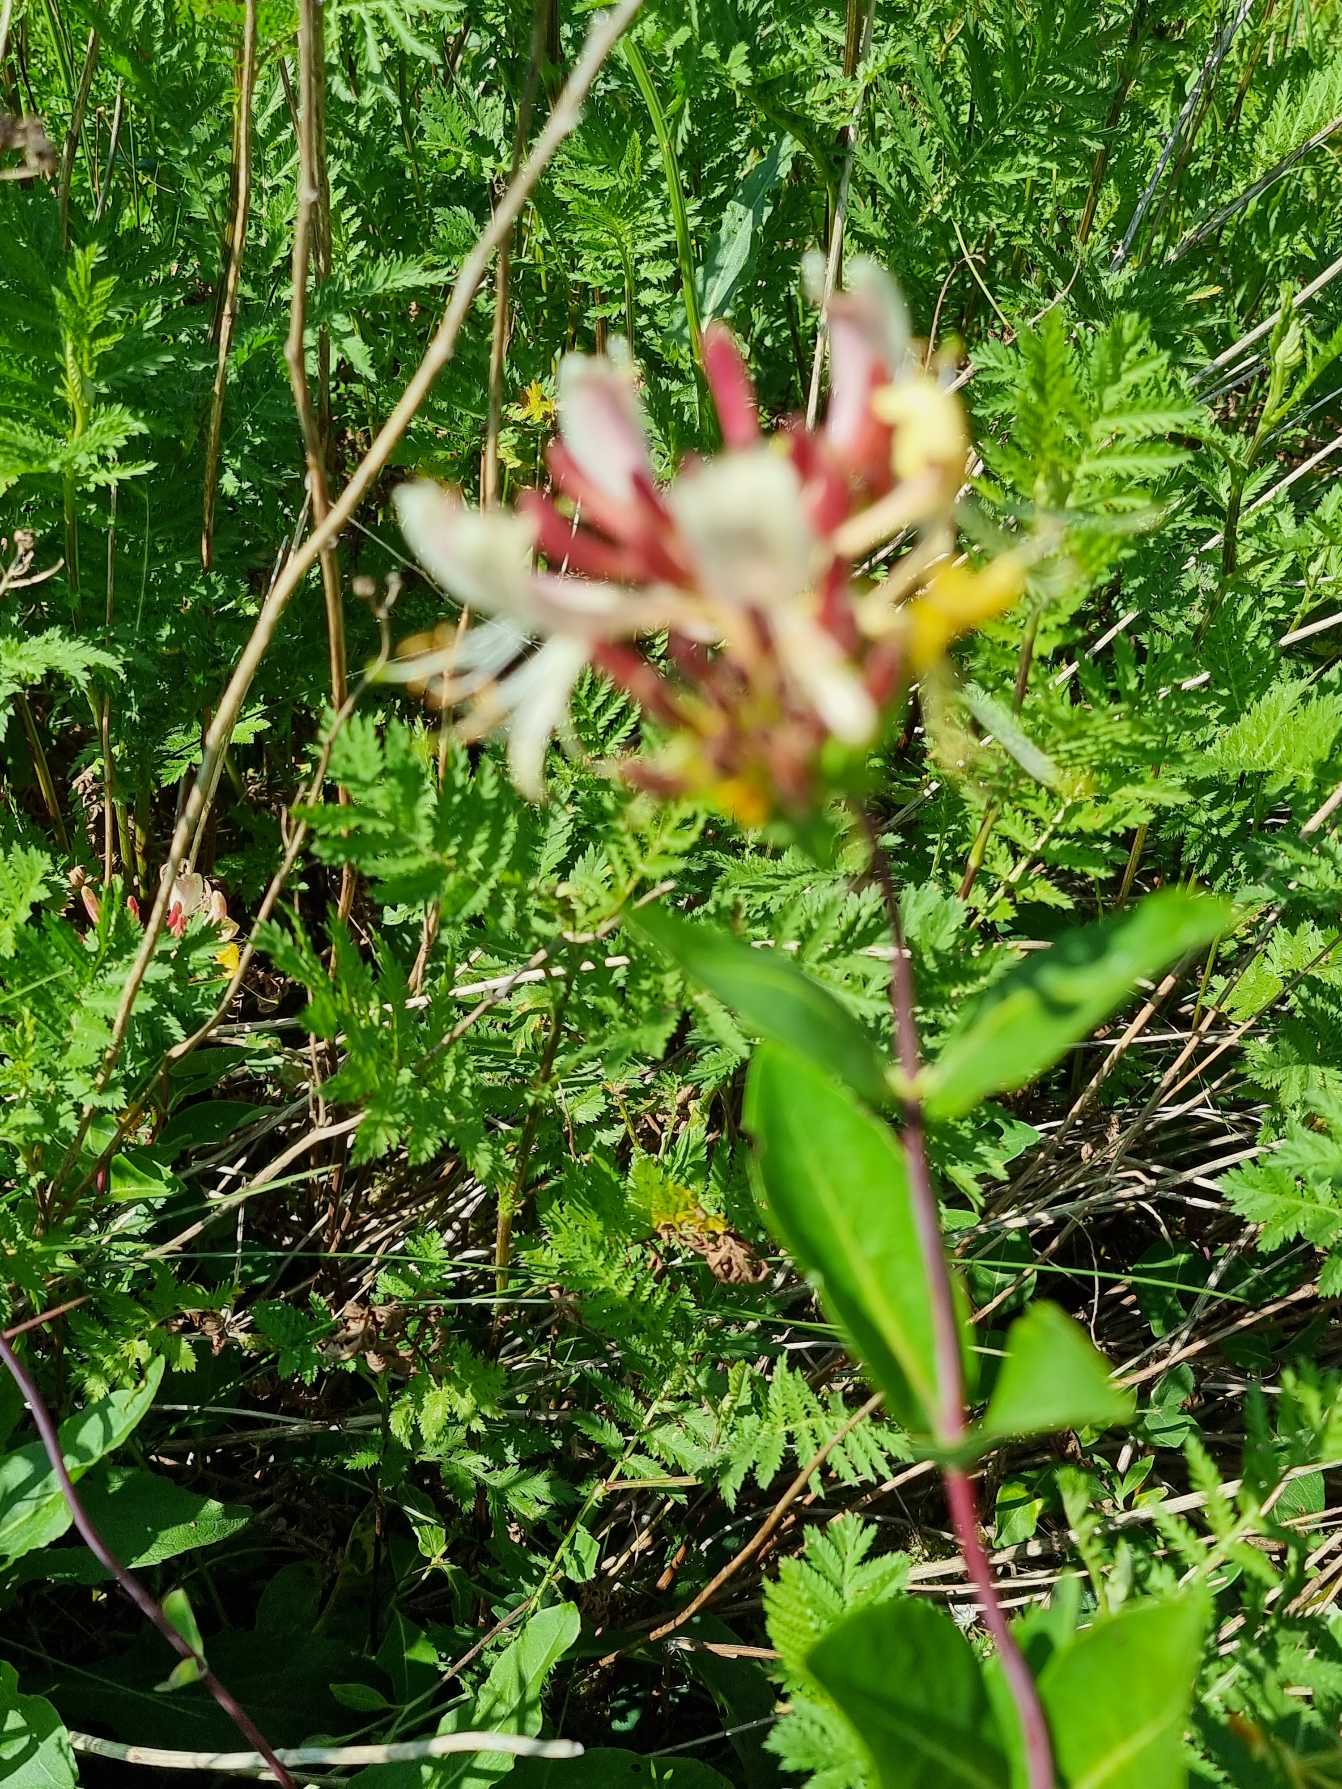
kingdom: Plantae
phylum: Tracheophyta
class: Magnoliopsida
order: Dipsacales
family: Caprifoliaceae
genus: Lonicera
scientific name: Lonicera periclymenum
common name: Almindelig gedeblad
